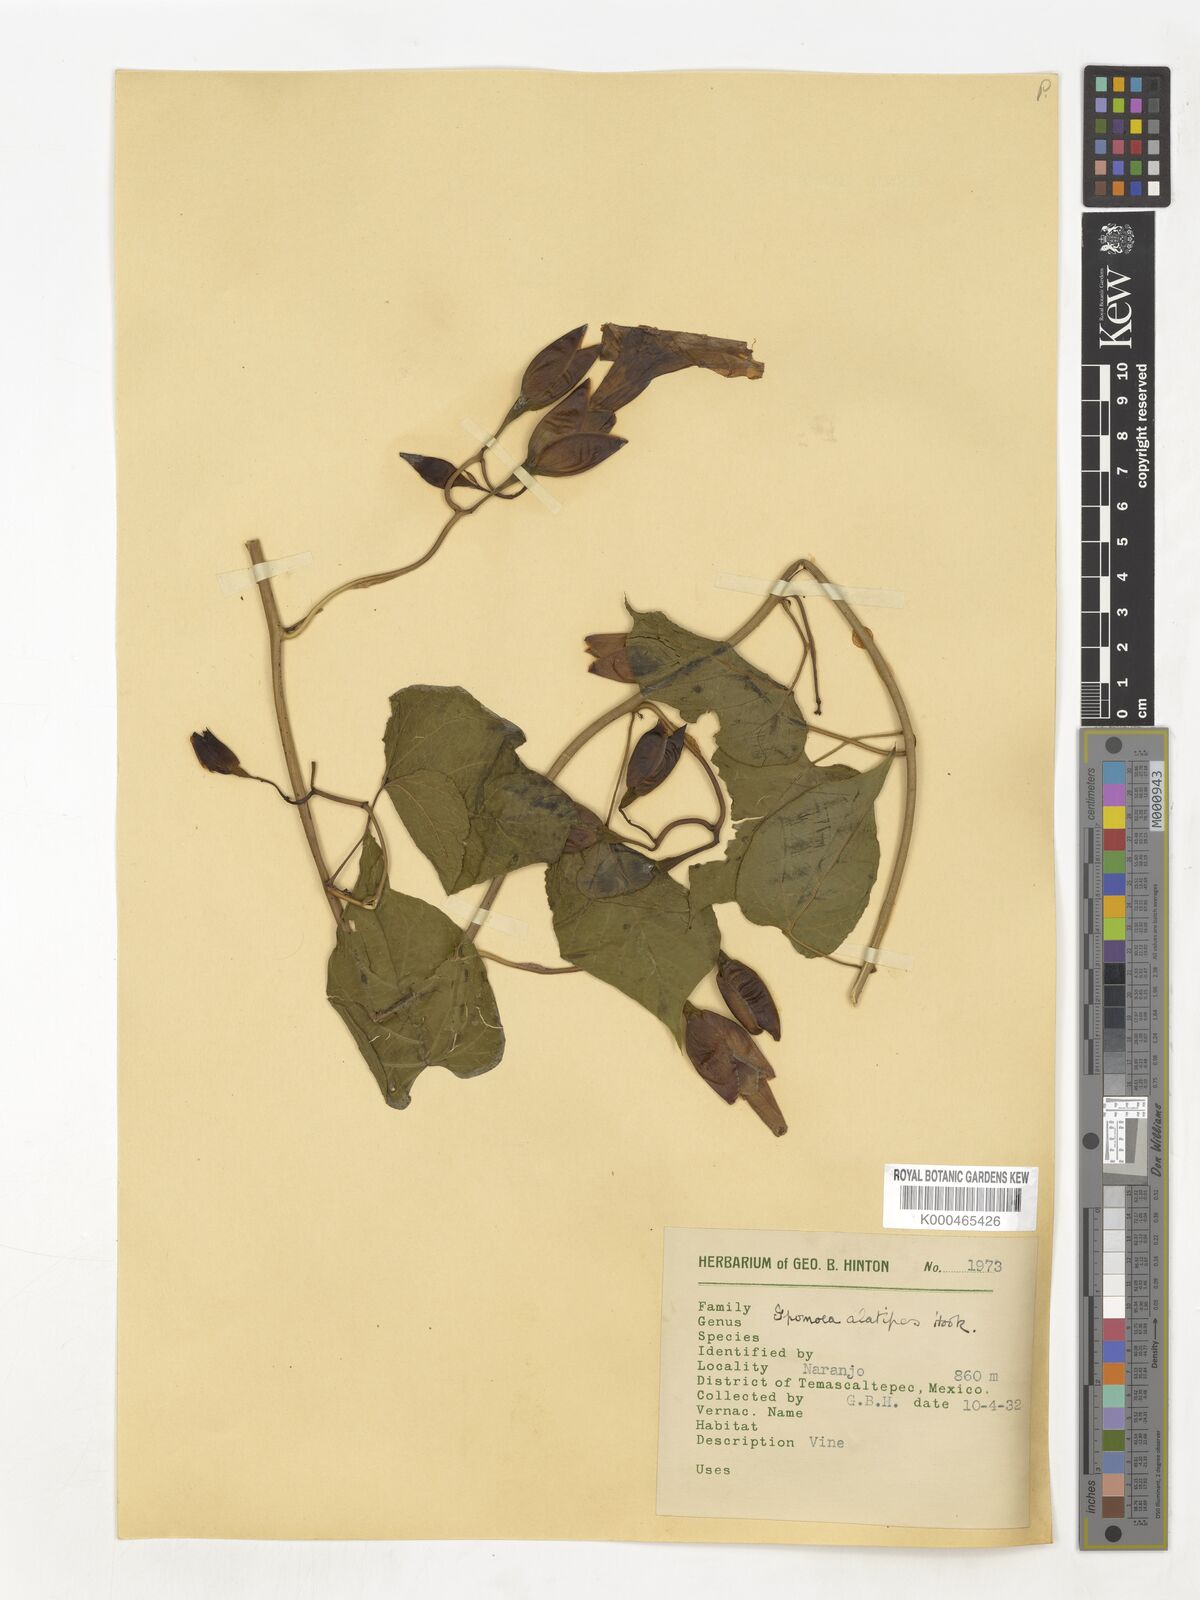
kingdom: Plantae
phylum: Tracheophyta
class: Magnoliopsida
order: Solanales
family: Convolvulaceae
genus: Operculina
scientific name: Operculina
